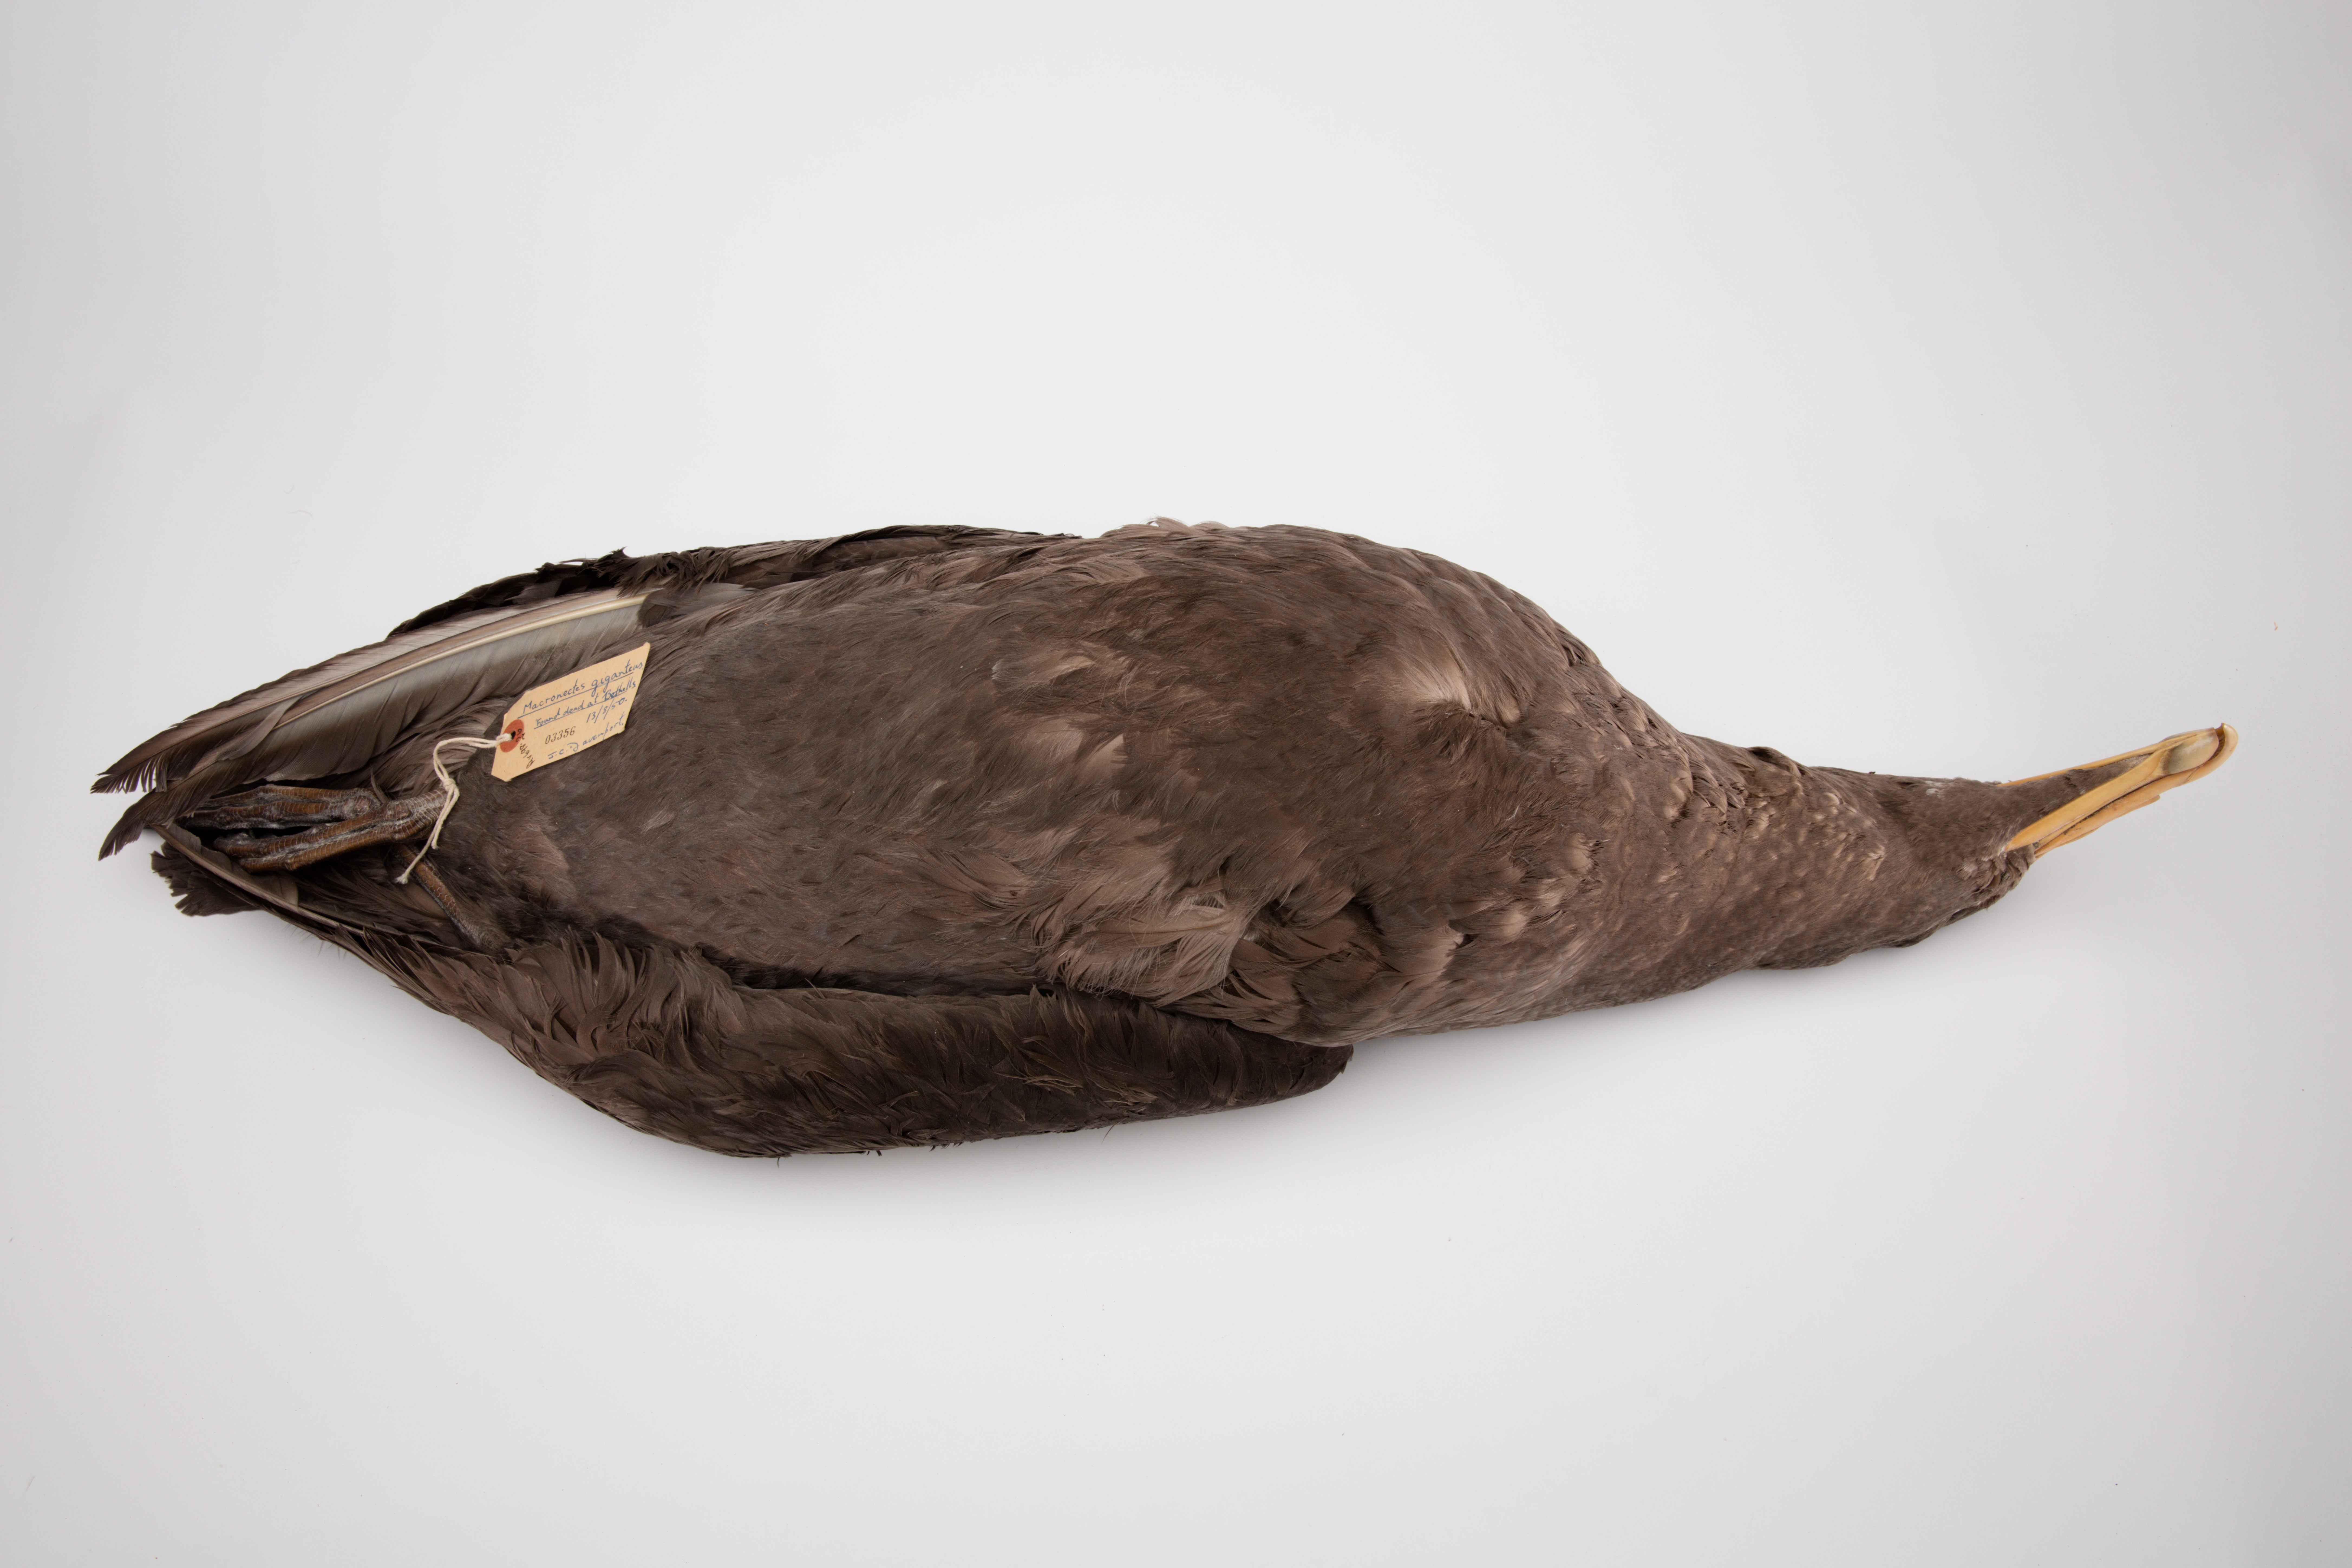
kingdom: Animalia
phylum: Chordata
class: Aves
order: Procellariiformes
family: Procellariidae
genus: Macronectes
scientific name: Macronectes giganteus
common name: Southern giant petrel
